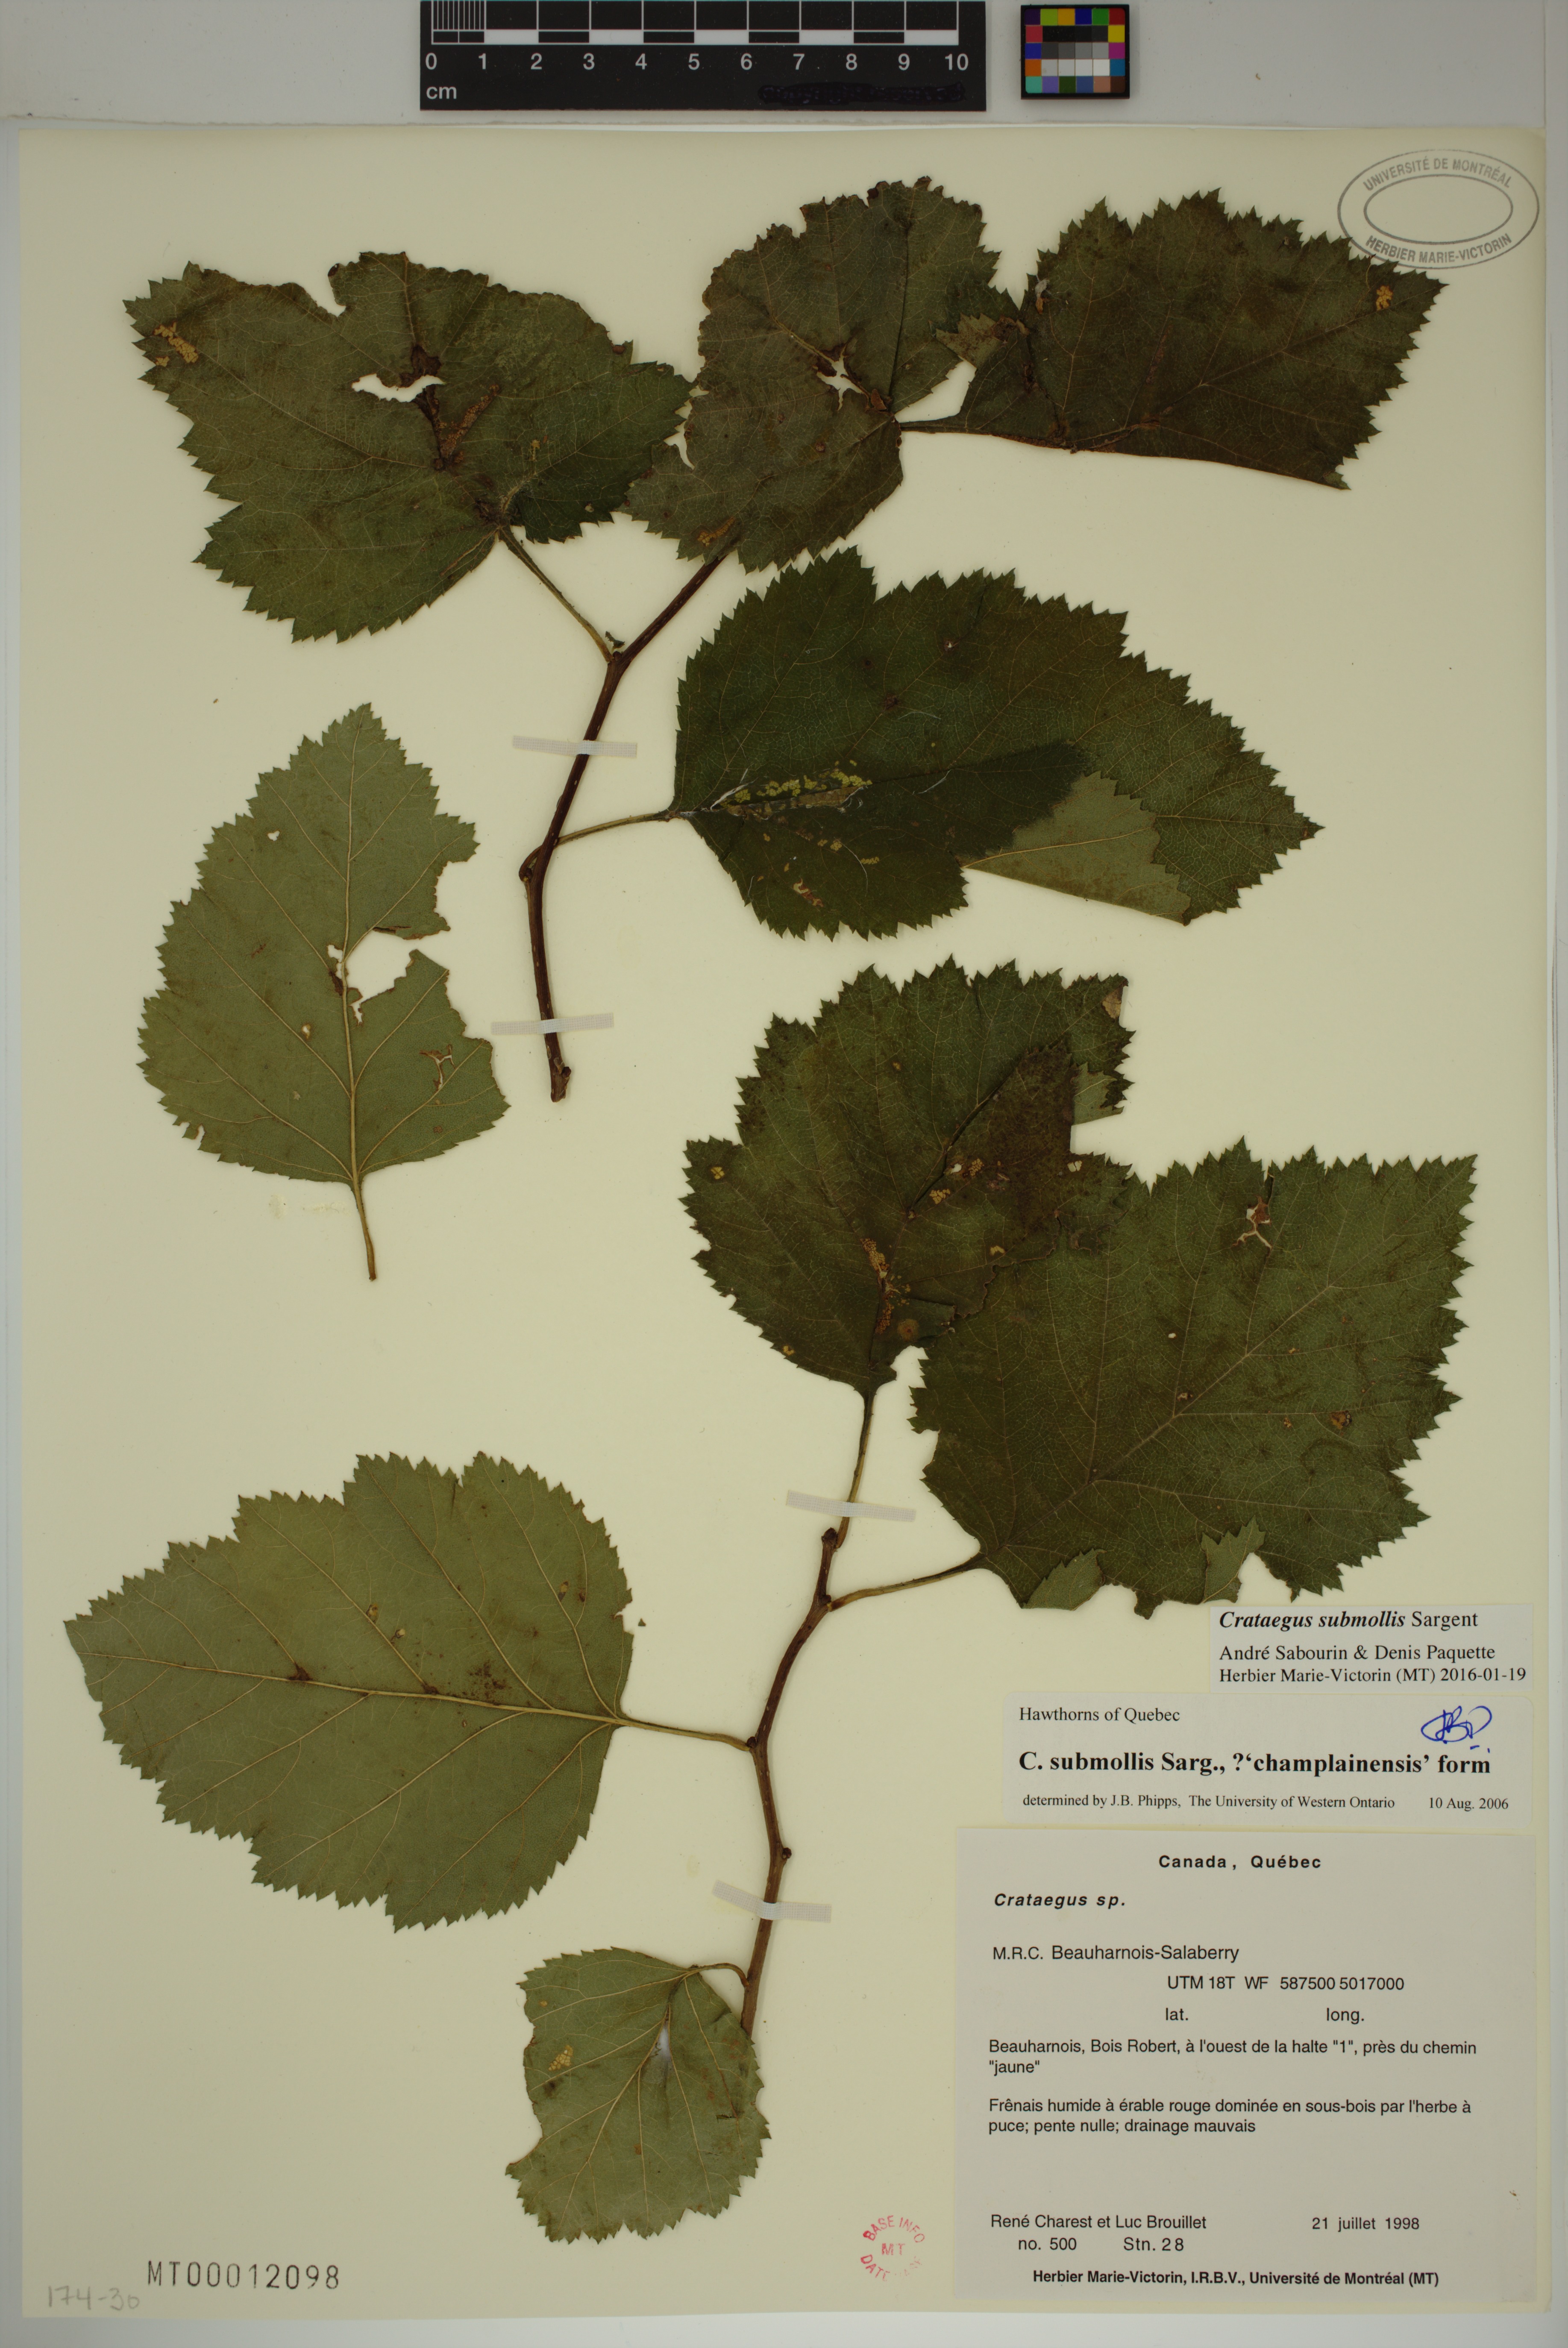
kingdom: Plantae
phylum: Tracheophyta
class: Magnoliopsida
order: Rosales
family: Rosaceae
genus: Crataegus
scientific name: Crataegus submollis
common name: Hairy cockspurthorn
